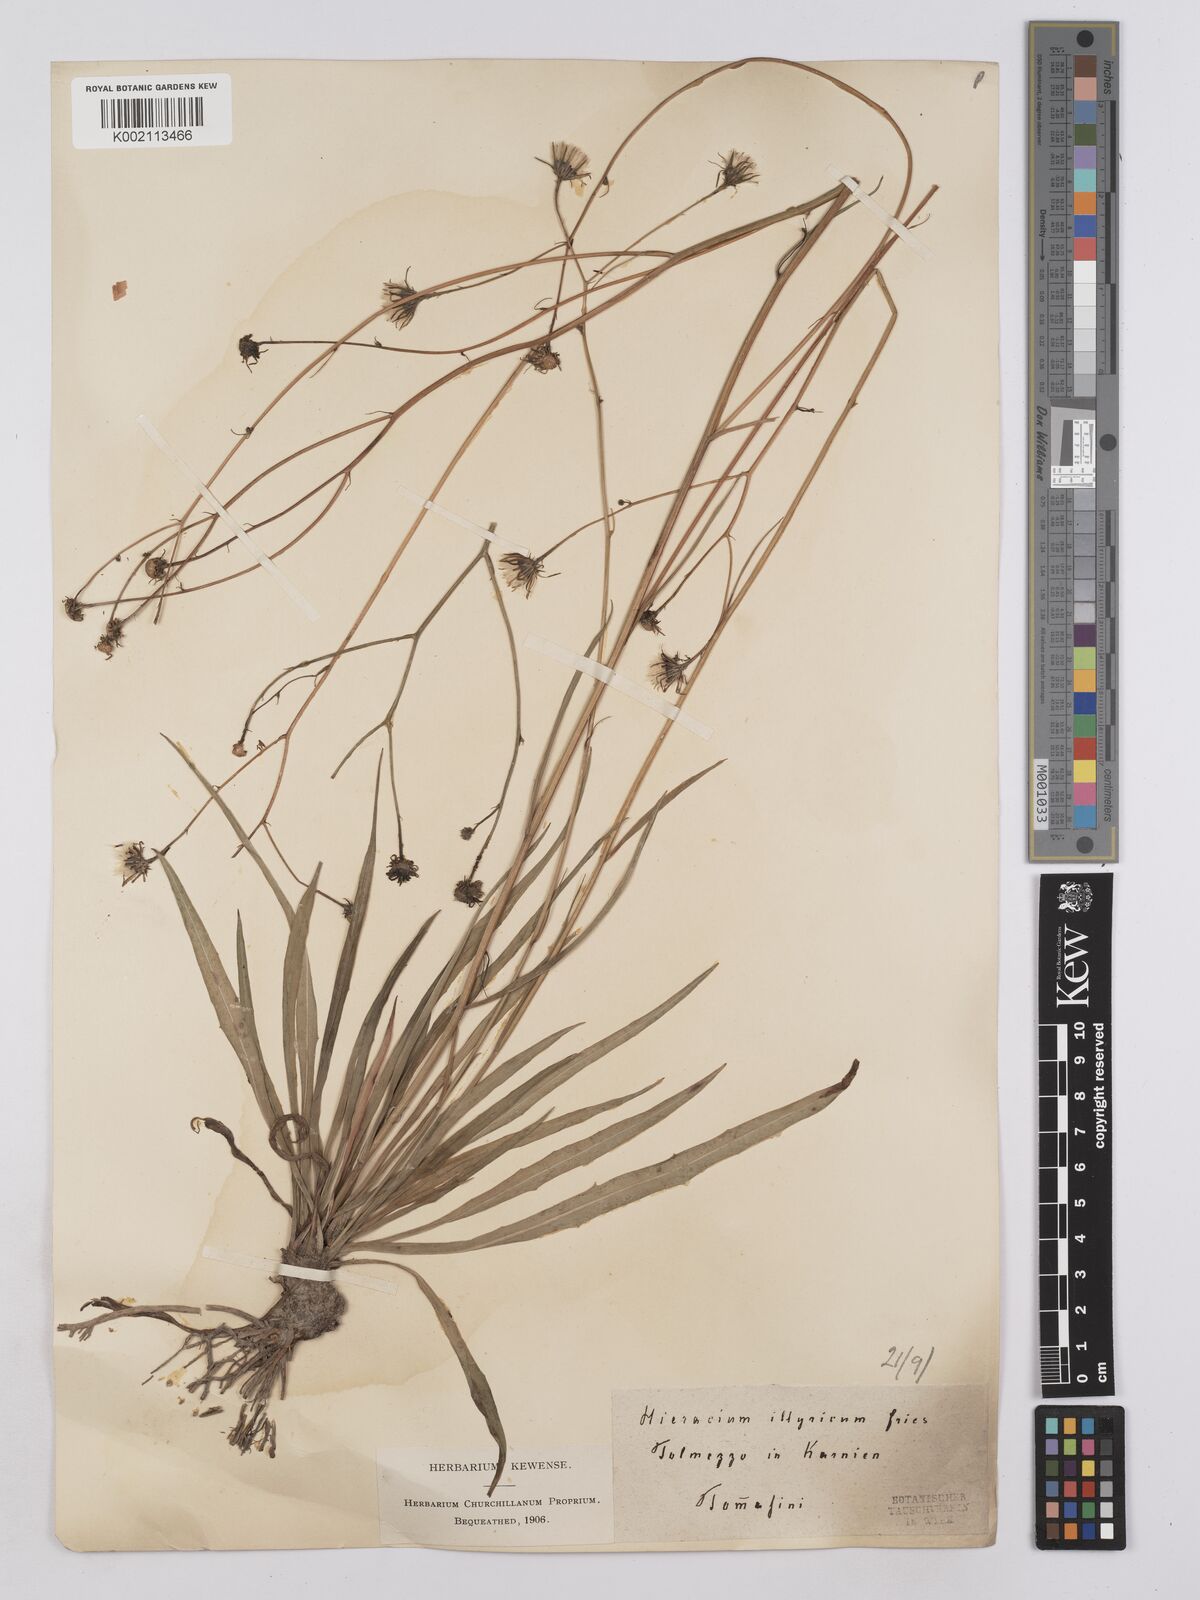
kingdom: Plantae
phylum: Tracheophyta
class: Magnoliopsida
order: Asterales
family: Asteraceae
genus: Hieracium
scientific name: Hieracium calcareum
